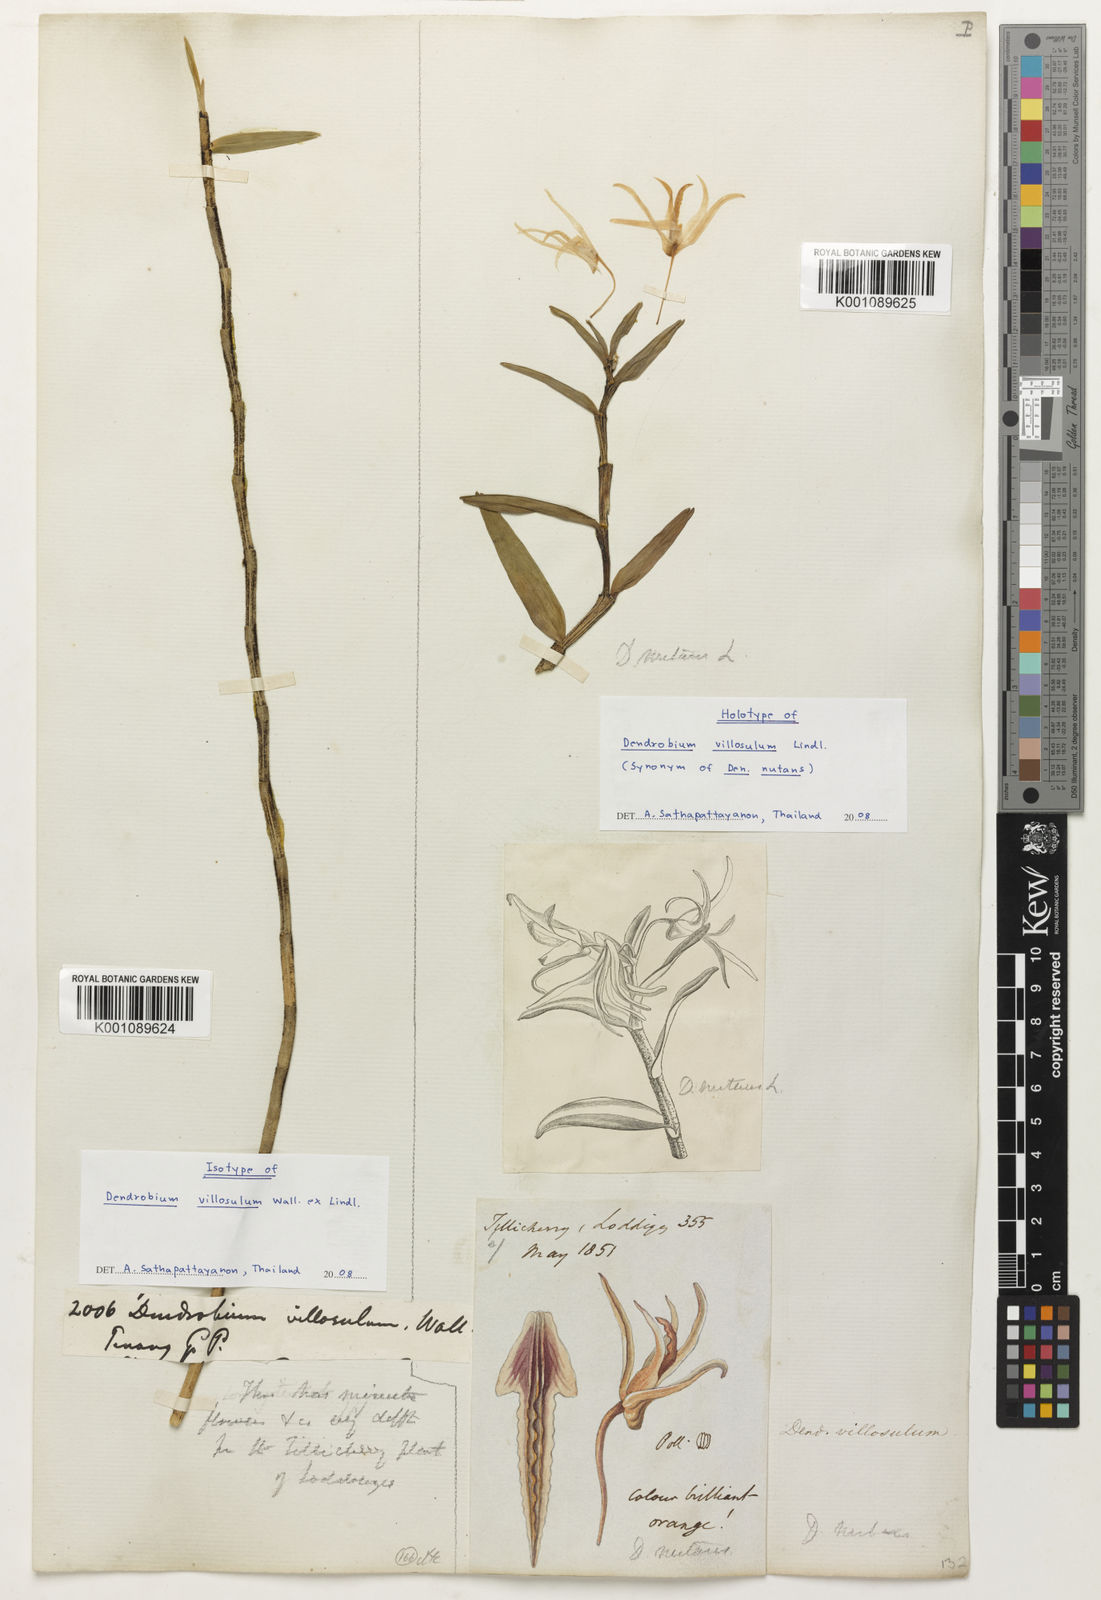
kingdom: Plantae
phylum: Tracheophyta
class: Liliopsida
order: Asparagales
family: Orchidaceae
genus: Dendrobium
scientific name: Dendrobium nutantiflorum
